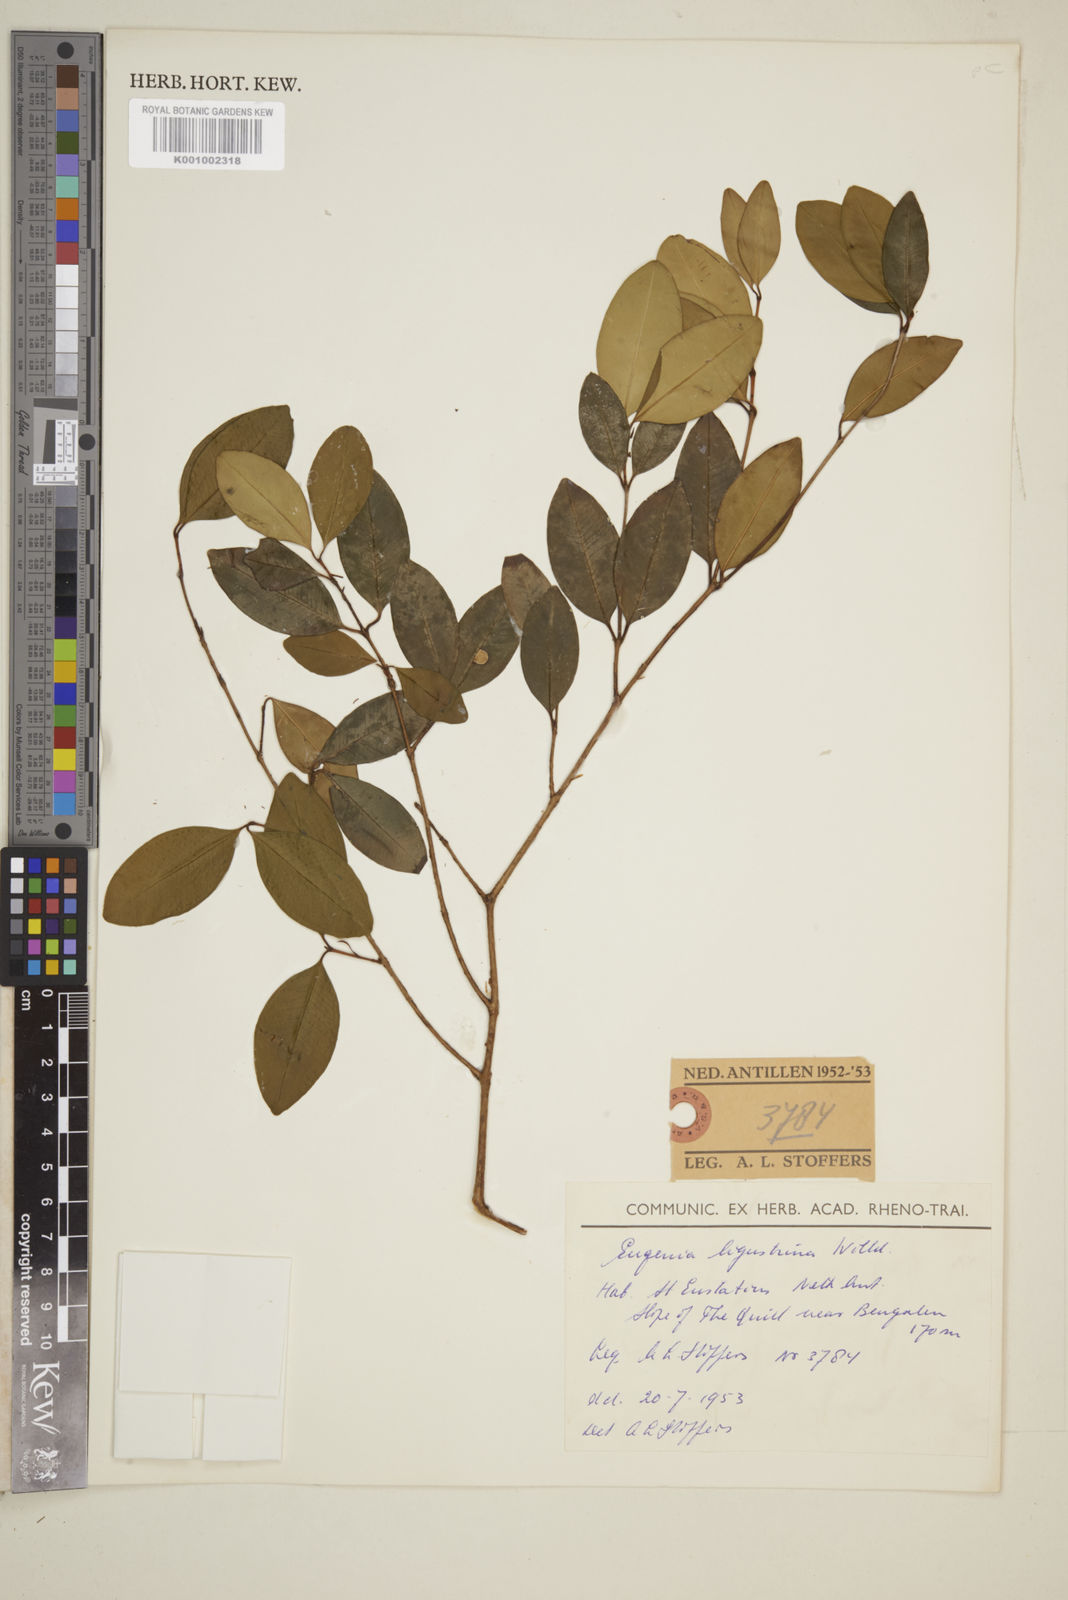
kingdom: Plantae
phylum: Tracheophyta
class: Magnoliopsida
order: Myrtales
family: Myrtaceae
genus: Eugenia
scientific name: Eugenia ligustrina
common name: Privet stopper
